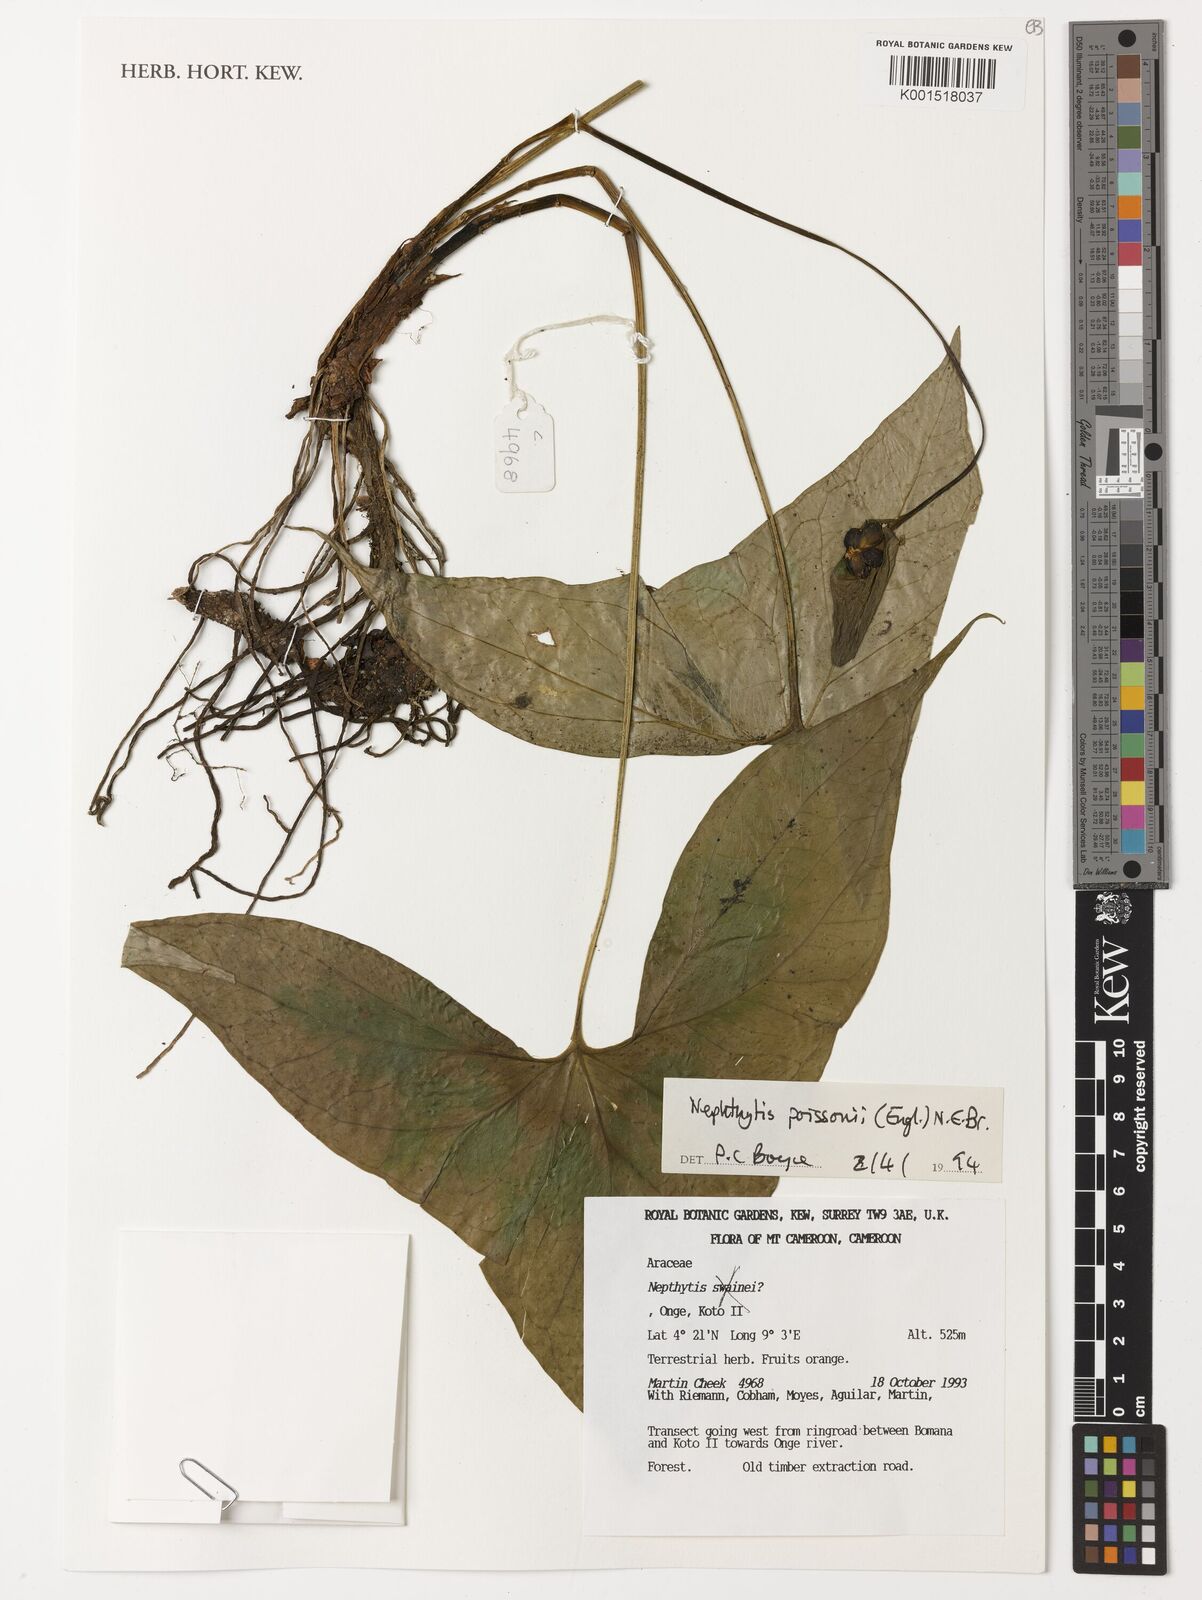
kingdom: Plantae
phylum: Tracheophyta
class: Liliopsida
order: Alismatales
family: Araceae
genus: Nephthytis
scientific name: Nephthytis poissonii
